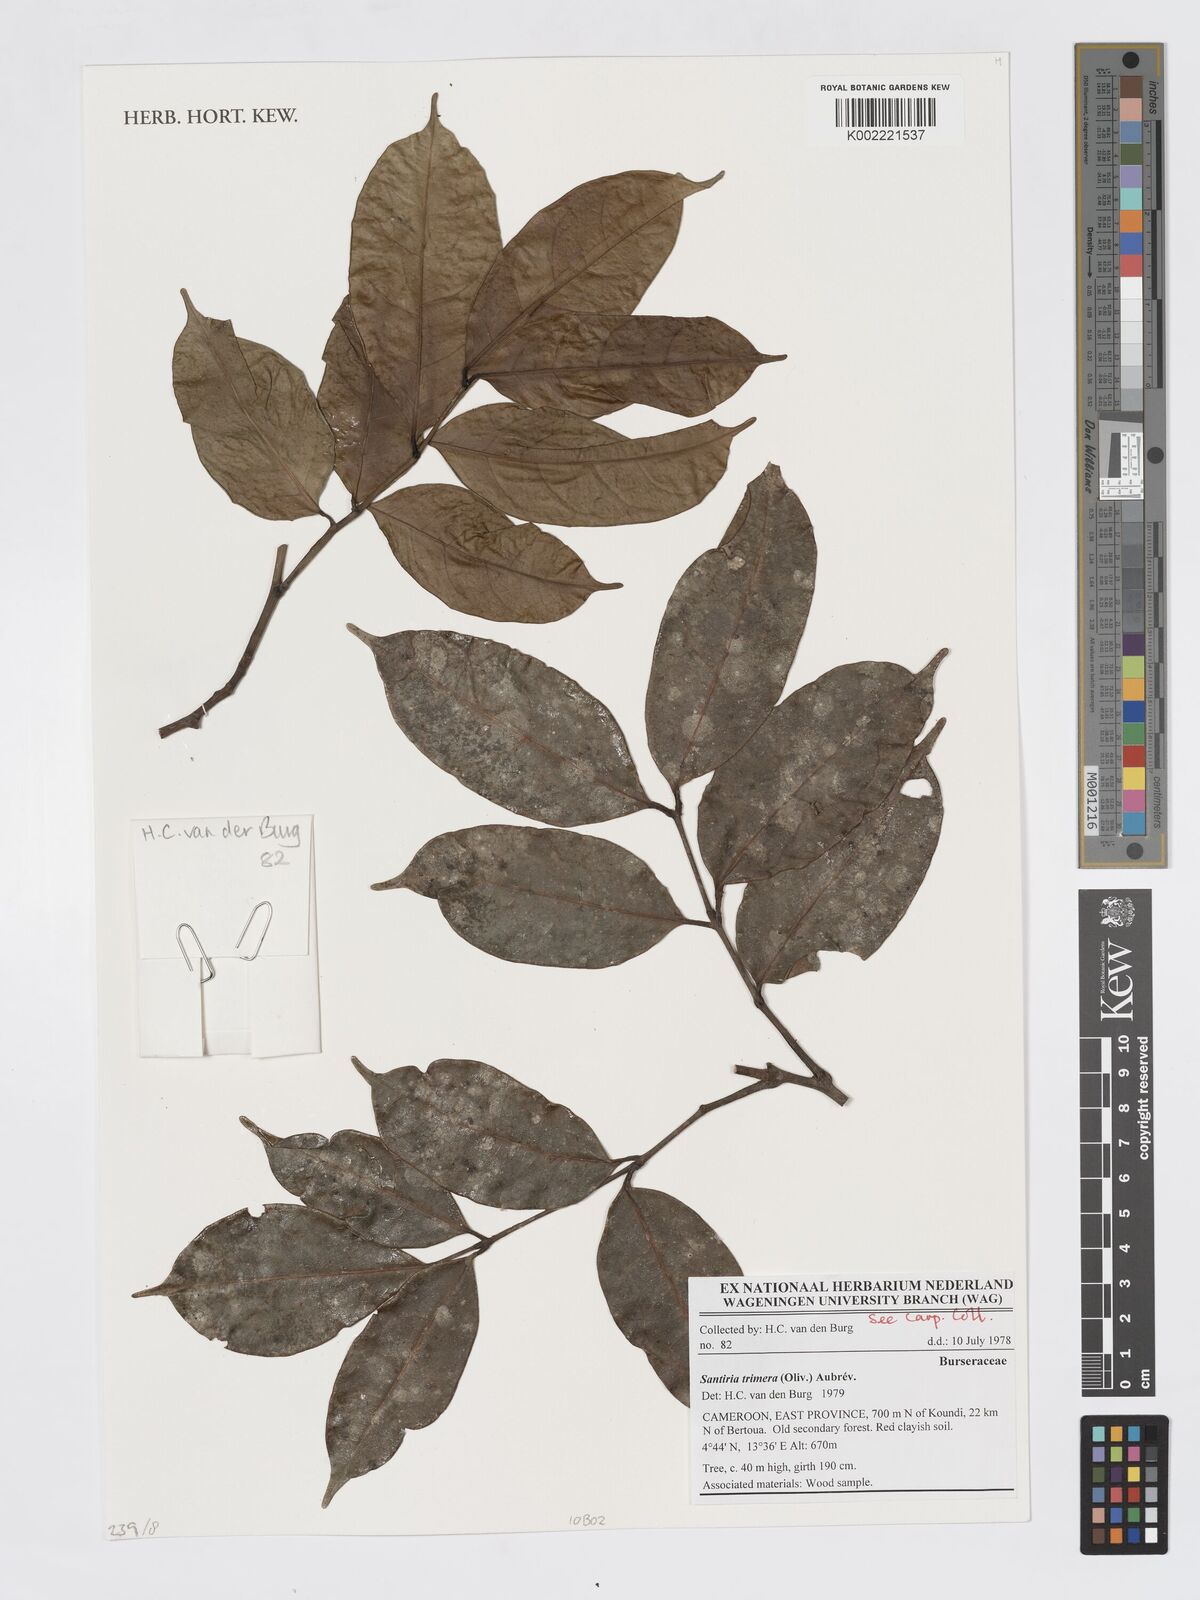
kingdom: Plantae
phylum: Tracheophyta
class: Magnoliopsida
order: Sapindales
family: Burseraceae
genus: Pachylobus
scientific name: Pachylobus trimerus
